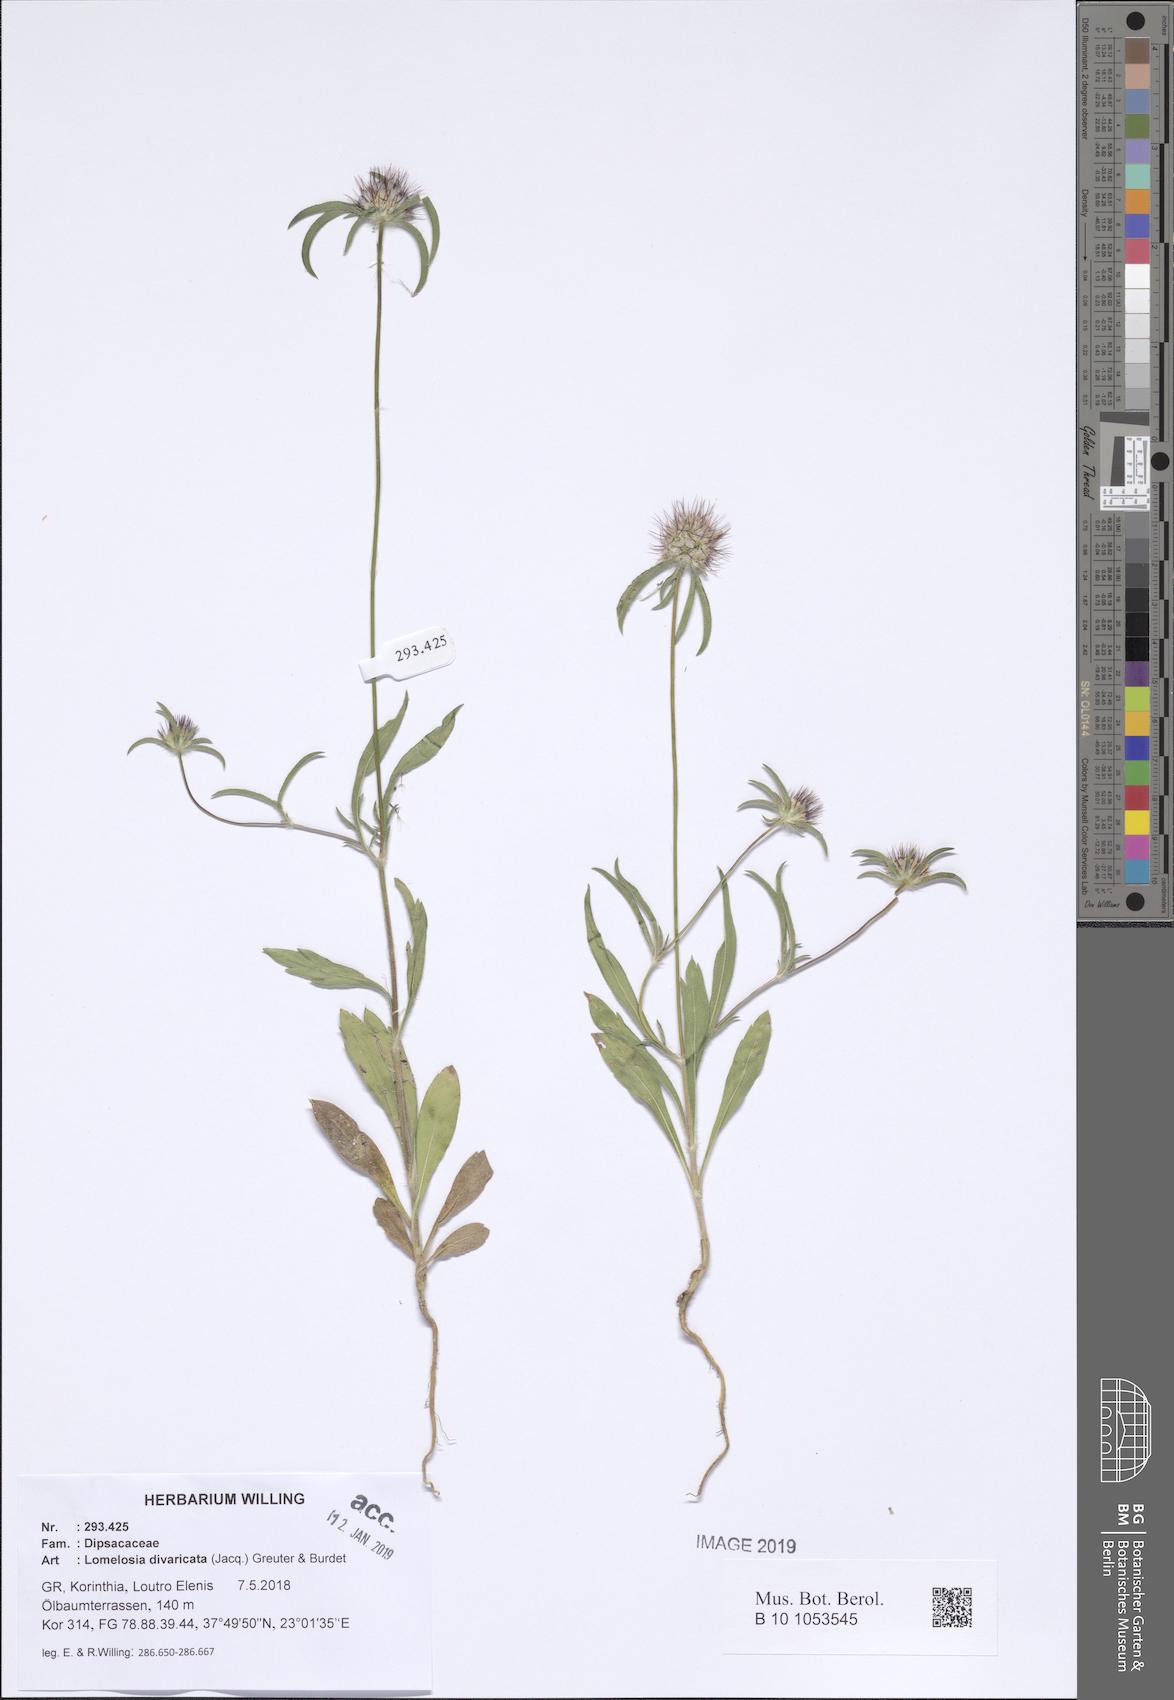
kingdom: Plantae
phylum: Tracheophyta
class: Magnoliopsida
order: Dipsacales
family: Caprifoliaceae
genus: Lomelosia
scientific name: Lomelosia divaricata
